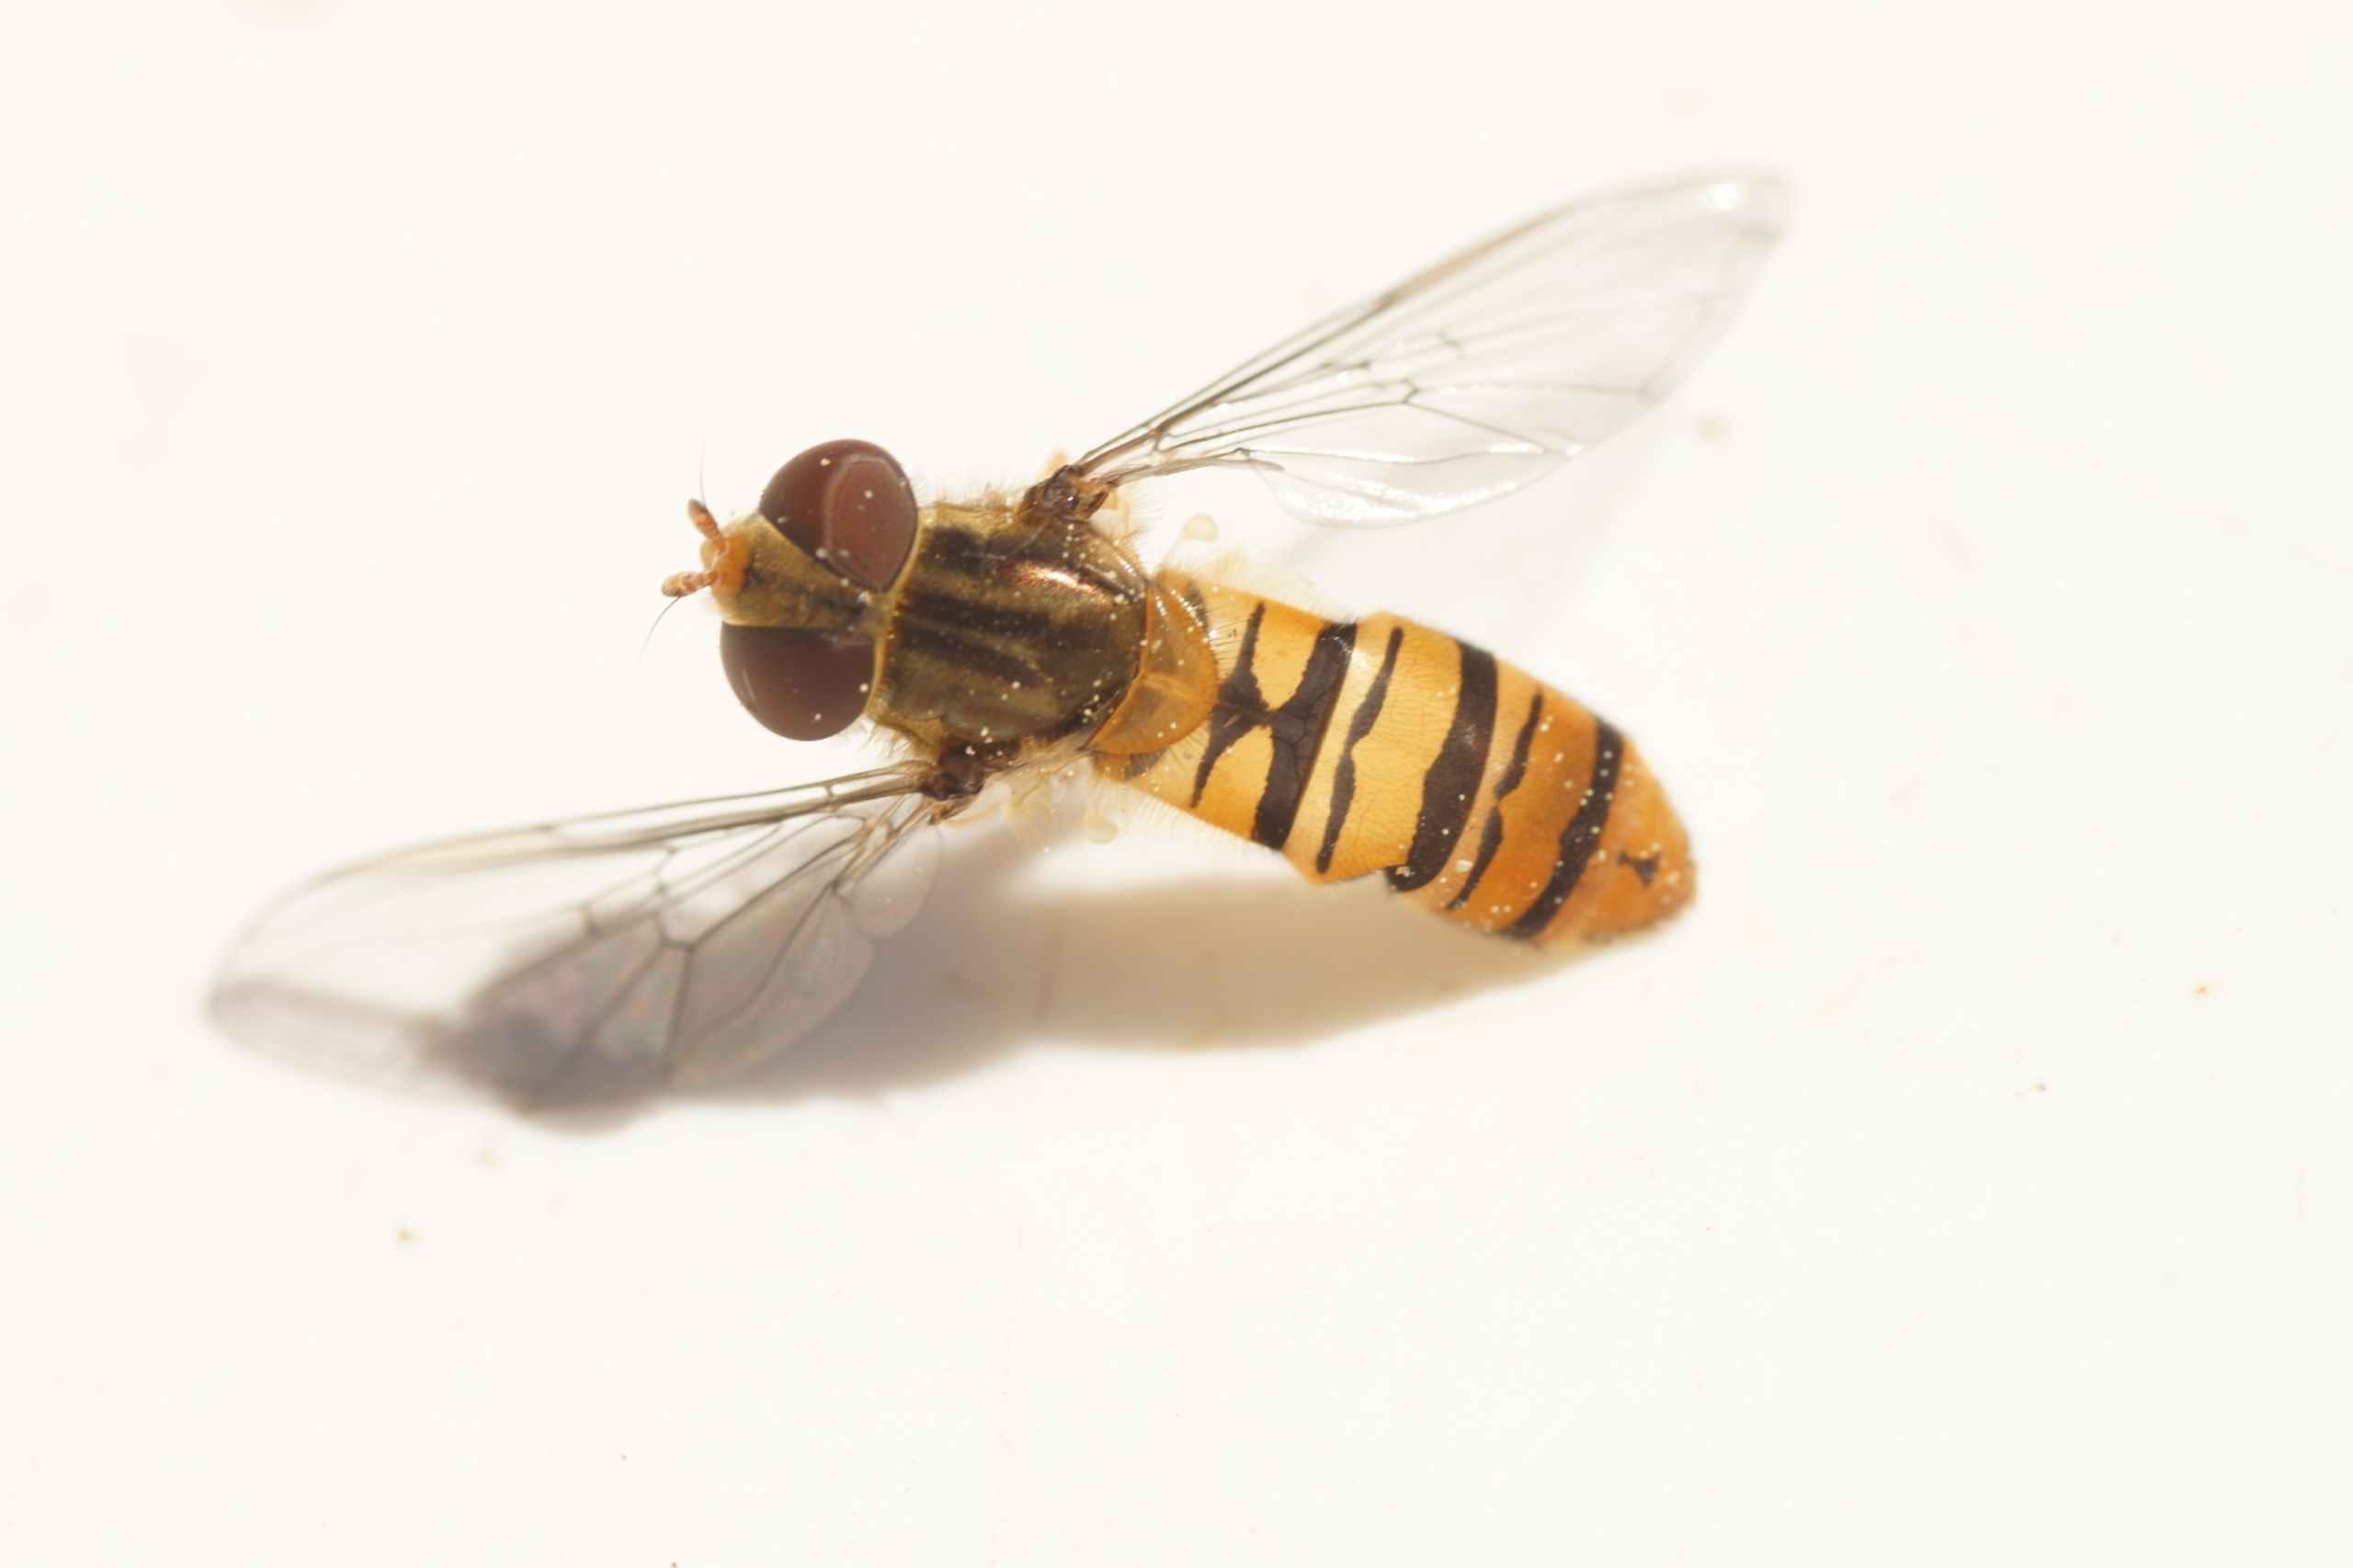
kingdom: Animalia
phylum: Arthropoda
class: Insecta
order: Diptera
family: Syrphidae
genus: Episyrphus
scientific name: Episyrphus balteatus
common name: Dobbeltbåndet svirreflue
